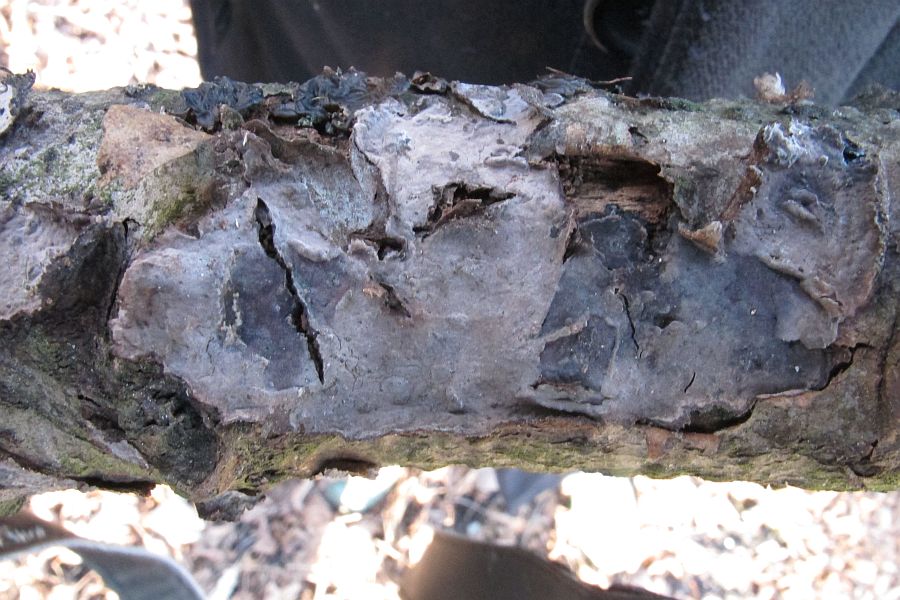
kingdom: Fungi
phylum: Basidiomycota
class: Agaricomycetes
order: Russulales
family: Peniophoraceae
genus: Peniophora
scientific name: Peniophora rufomarginata
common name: linde-voksskind
